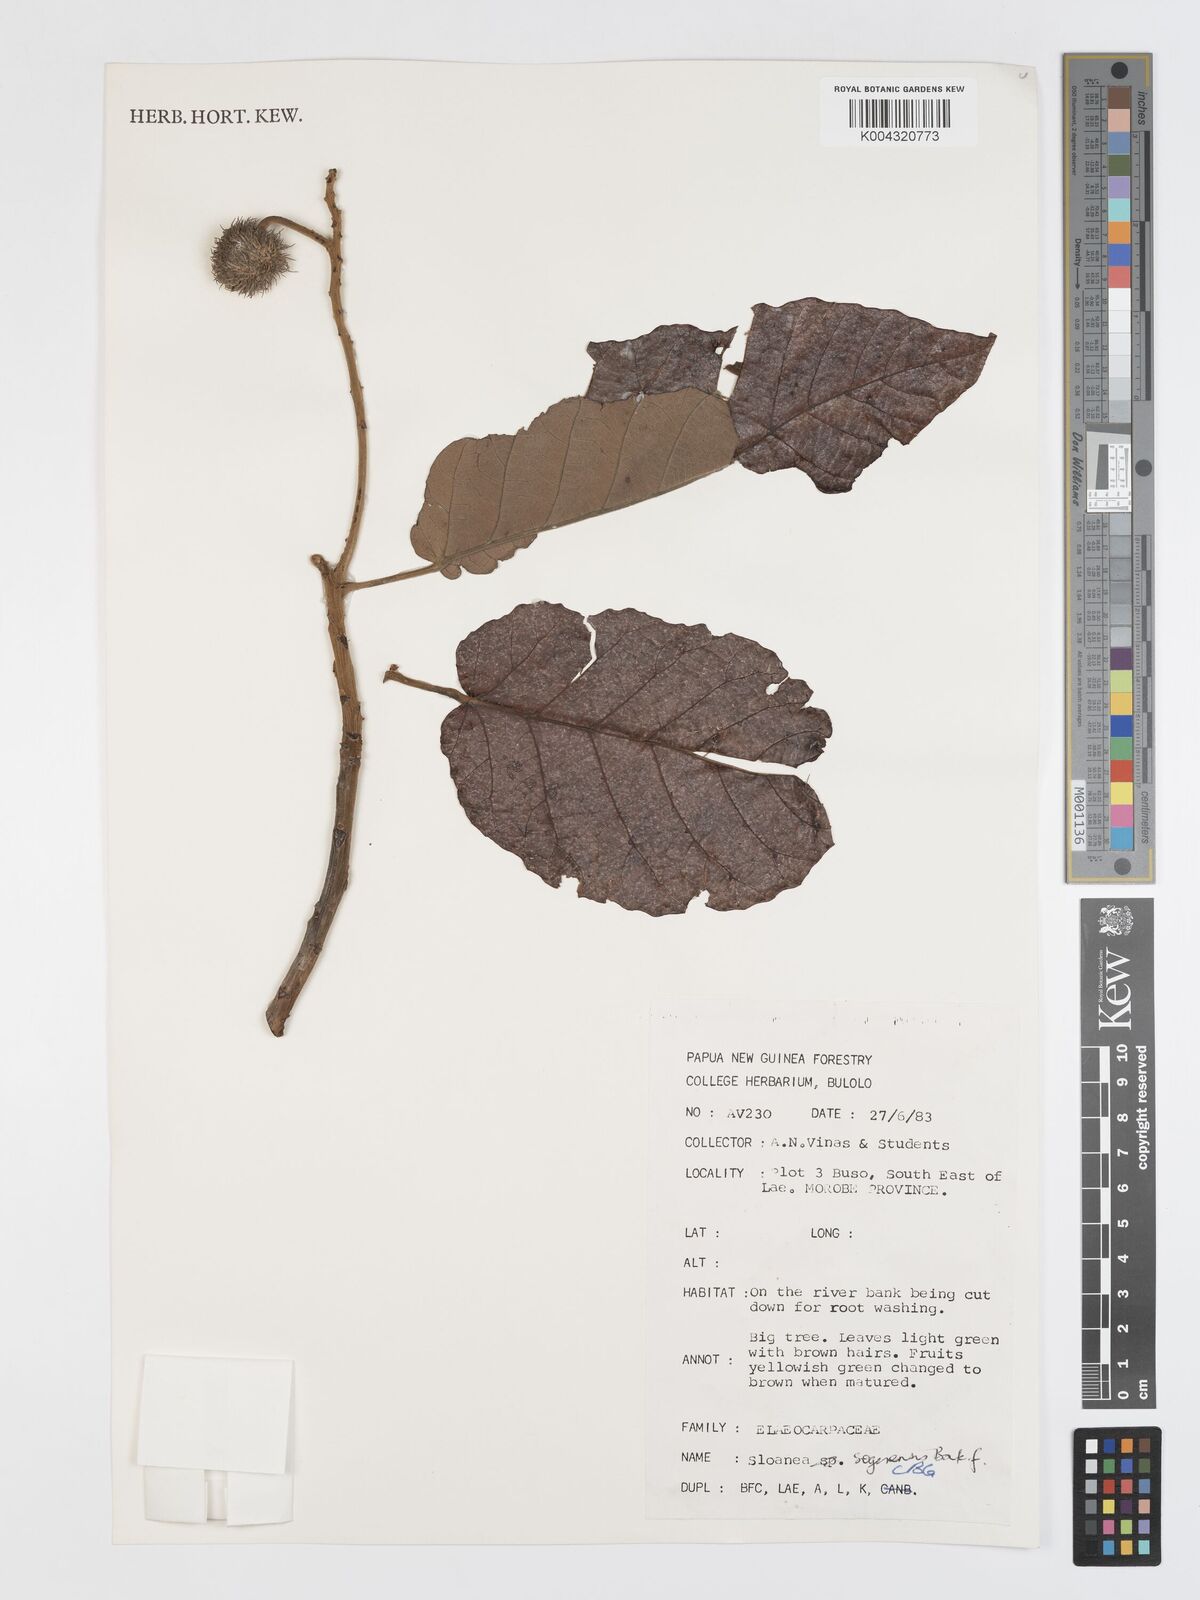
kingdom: Plantae
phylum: Tracheophyta
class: Magnoliopsida
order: Oxalidales
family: Elaeocarpaceae
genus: Sloanea
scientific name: Sloanea sogerensis
